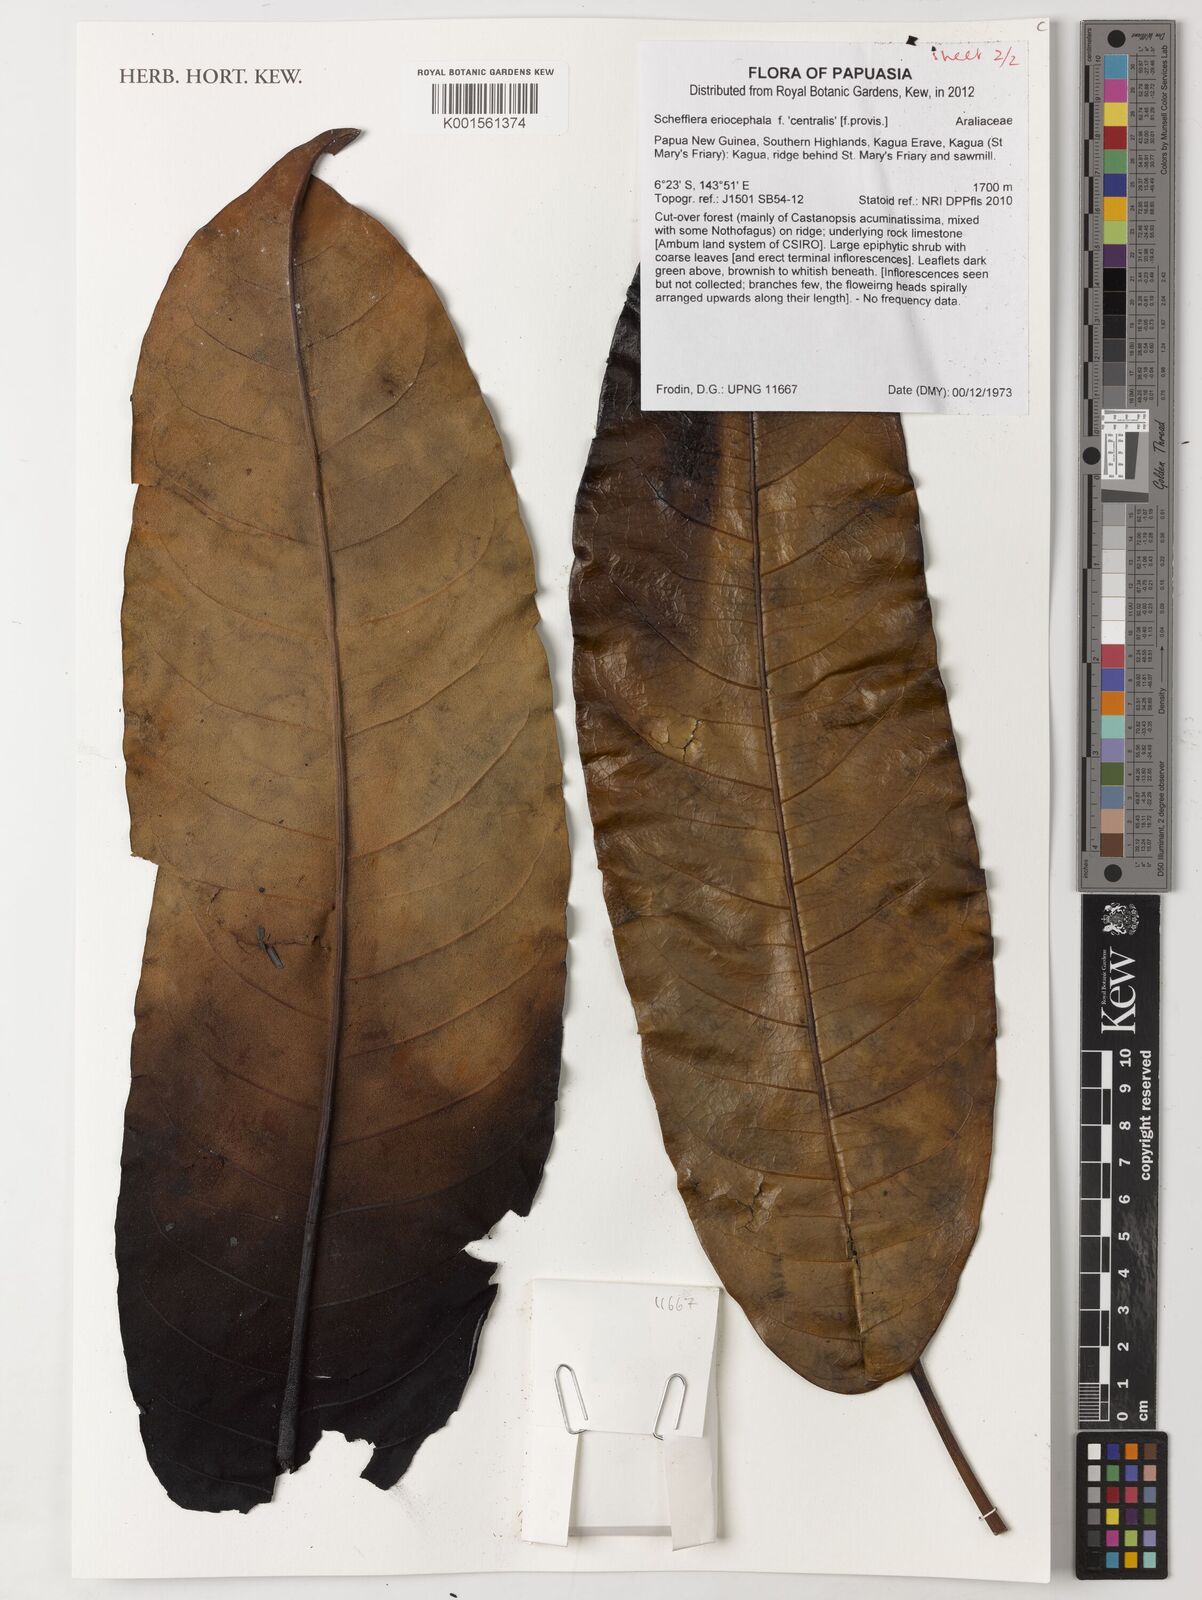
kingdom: Plantae
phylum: Tracheophyta
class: Magnoliopsida
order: Apiales
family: Araliaceae
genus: Schefflera
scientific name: Schefflera
